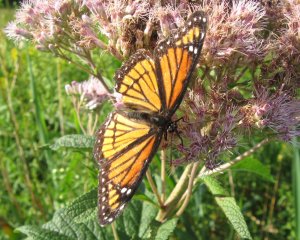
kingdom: Animalia
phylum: Arthropoda
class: Insecta
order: Lepidoptera
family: Nymphalidae
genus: Limenitis
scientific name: Limenitis archippus
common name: Viceroy
